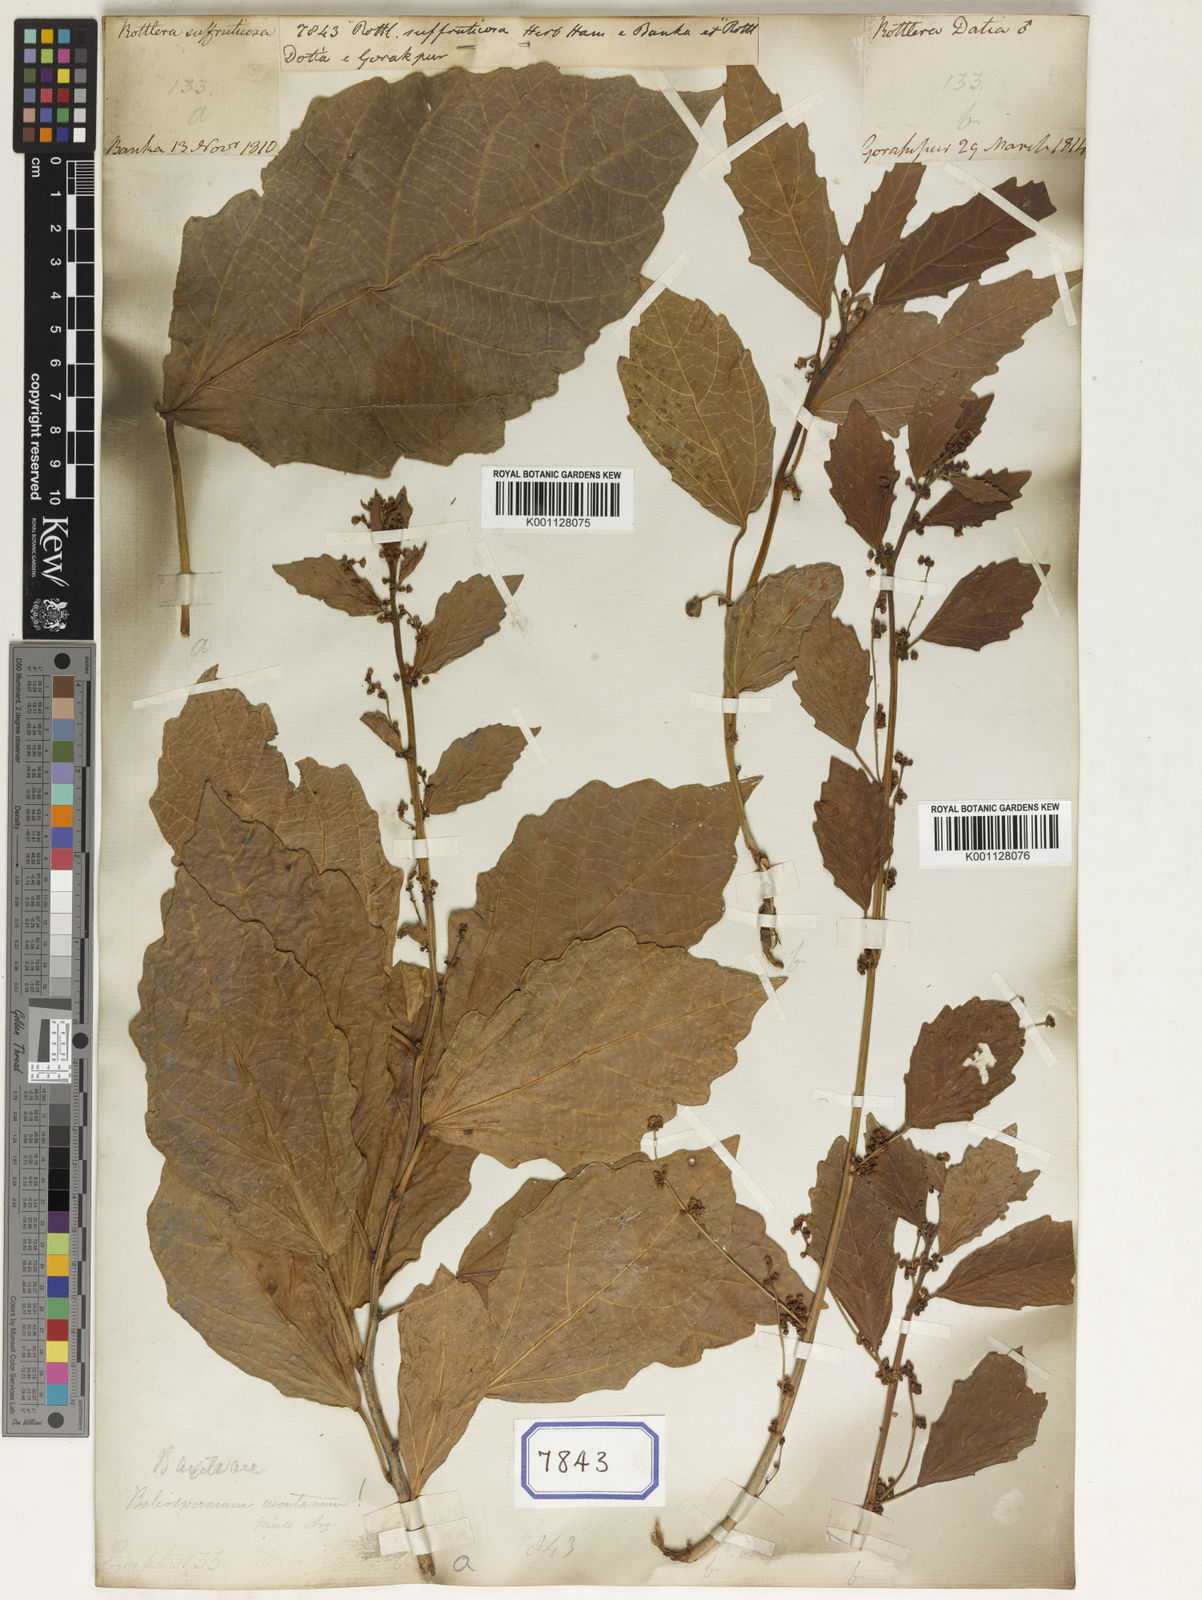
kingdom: Plantae
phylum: Tracheophyta
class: Magnoliopsida
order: Malpighiales
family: Euphorbiaceae
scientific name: Euphorbiaceae
